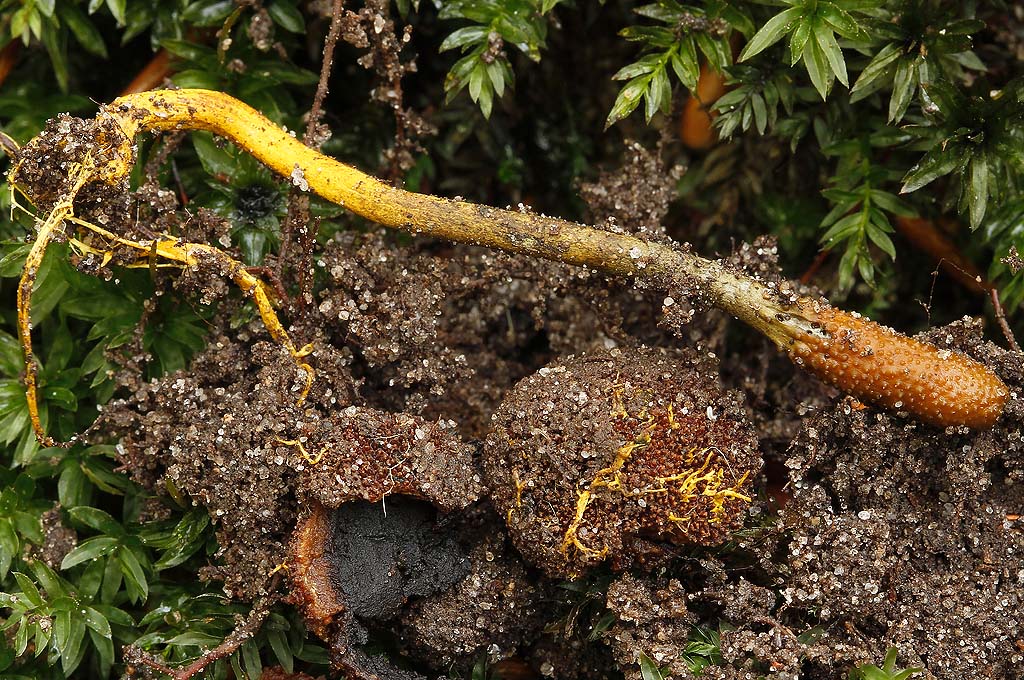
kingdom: Fungi
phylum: Ascomycota
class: Eurotiomycetes
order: Eurotiales
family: Elaphomycetaceae
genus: Elaphomyces
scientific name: Elaphomyces muricatus
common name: vortet hjortetrøffel
